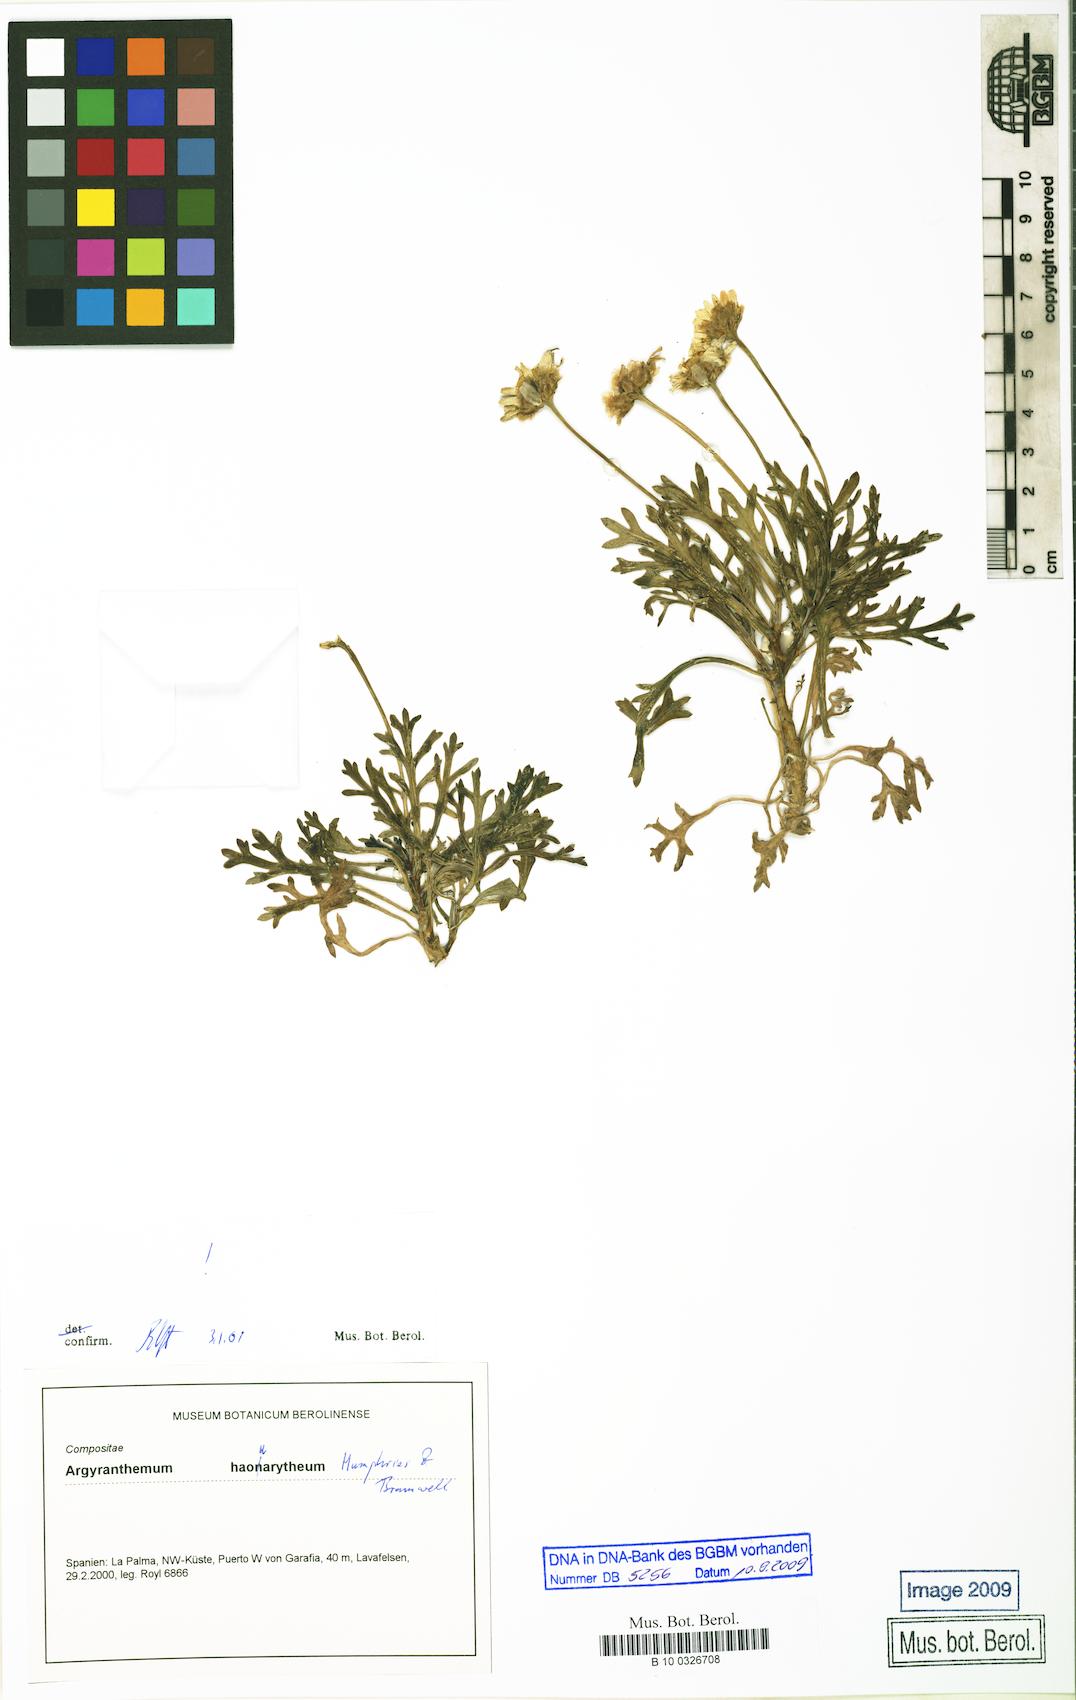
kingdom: Plantae
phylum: Tracheophyta
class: Magnoliopsida
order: Asterales
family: Asteraceae
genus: Argyranthemum
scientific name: Argyranthemum haouarytheum
